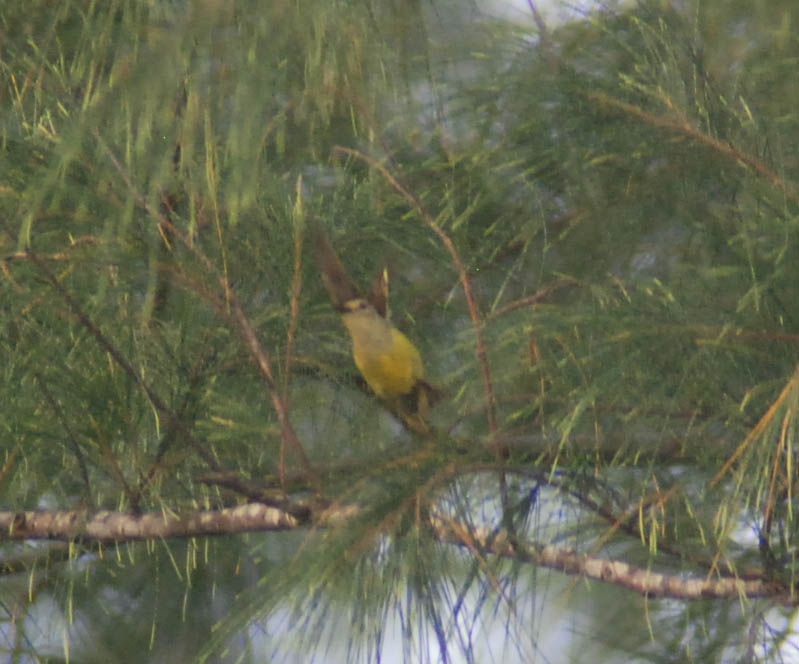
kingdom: Animalia
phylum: Chordata
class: Aves
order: Passeriformes
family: Oriolidae
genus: Oriolus
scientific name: Oriolus chinensis
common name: Black-naped oriole
